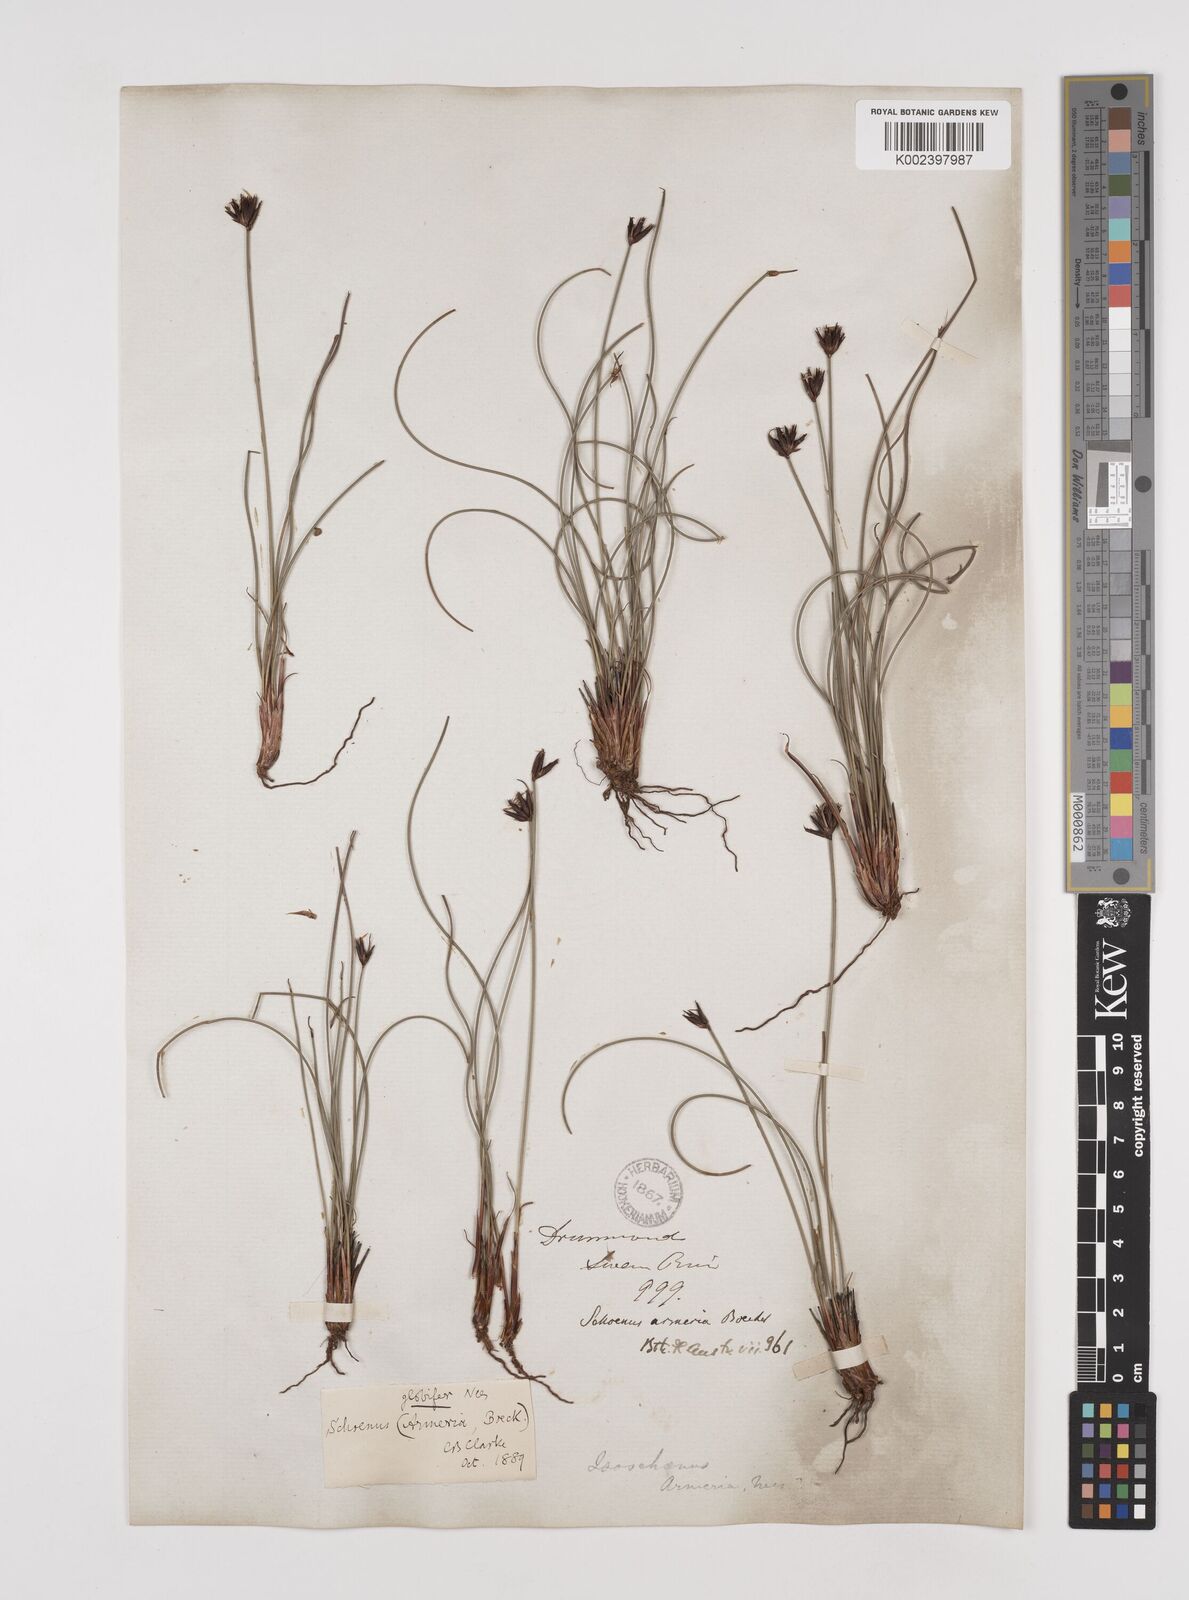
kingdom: Plantae
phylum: Tracheophyta
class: Liliopsida
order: Poales
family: Cyperaceae
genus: Schoenus
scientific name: Schoenus globifer
